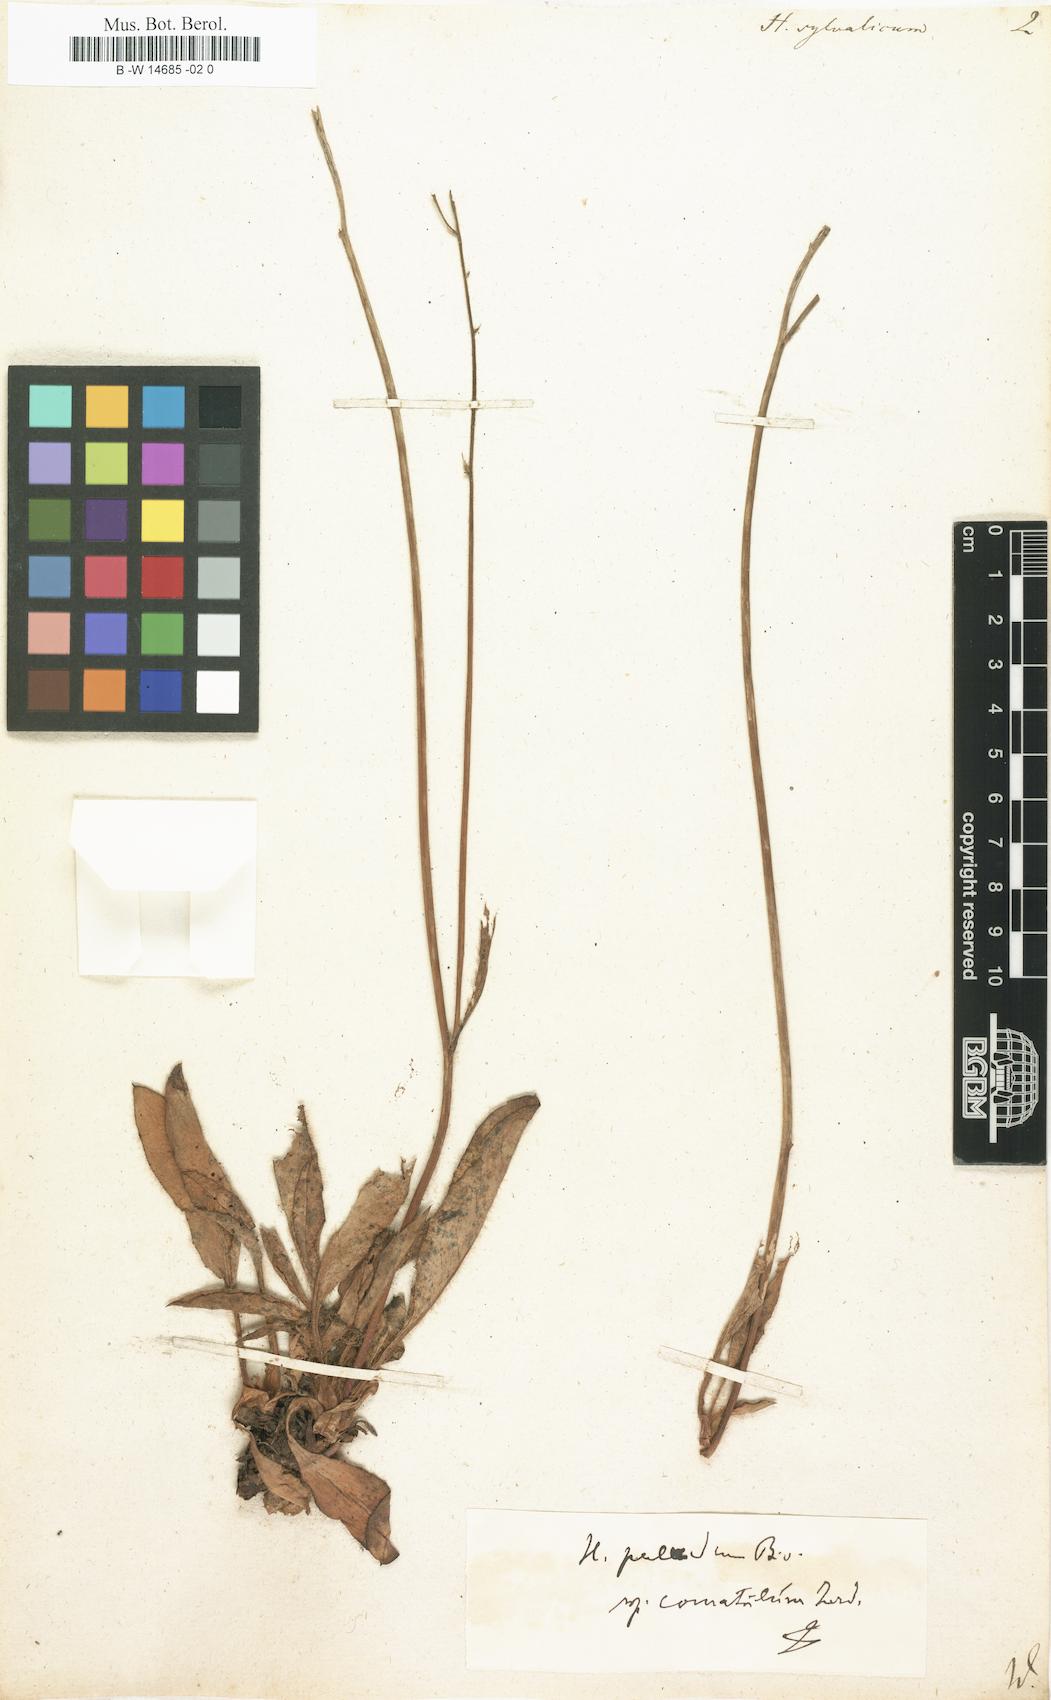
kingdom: Plantae
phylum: Tracheophyta
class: Magnoliopsida
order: Asterales
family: Asteraceae
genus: Hieracium
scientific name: Hieracium sylvaticum
